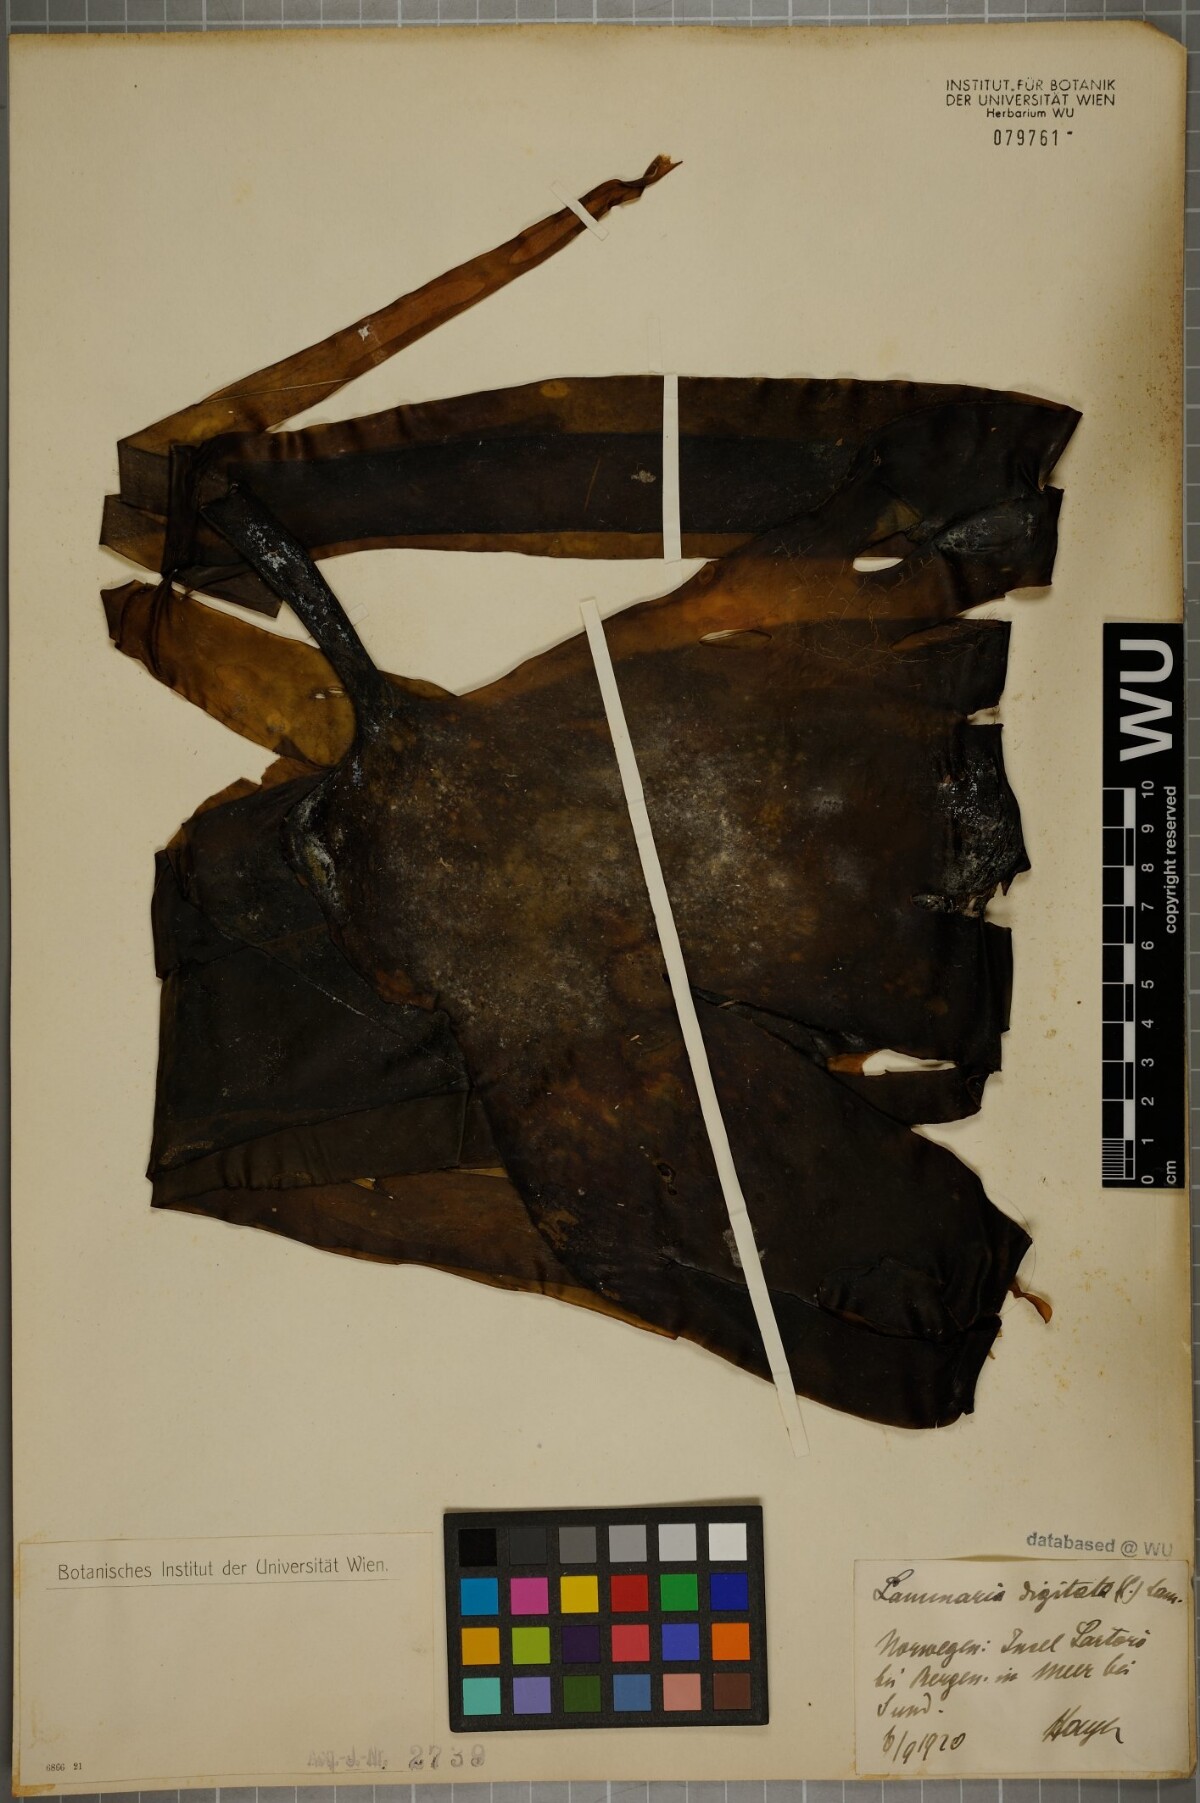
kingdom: Chromista
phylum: Ochrophyta
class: Phaeophyceae
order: Laminariales
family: Laminariaceae
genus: Laminaria
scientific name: Laminaria digitata
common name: Oarweed
